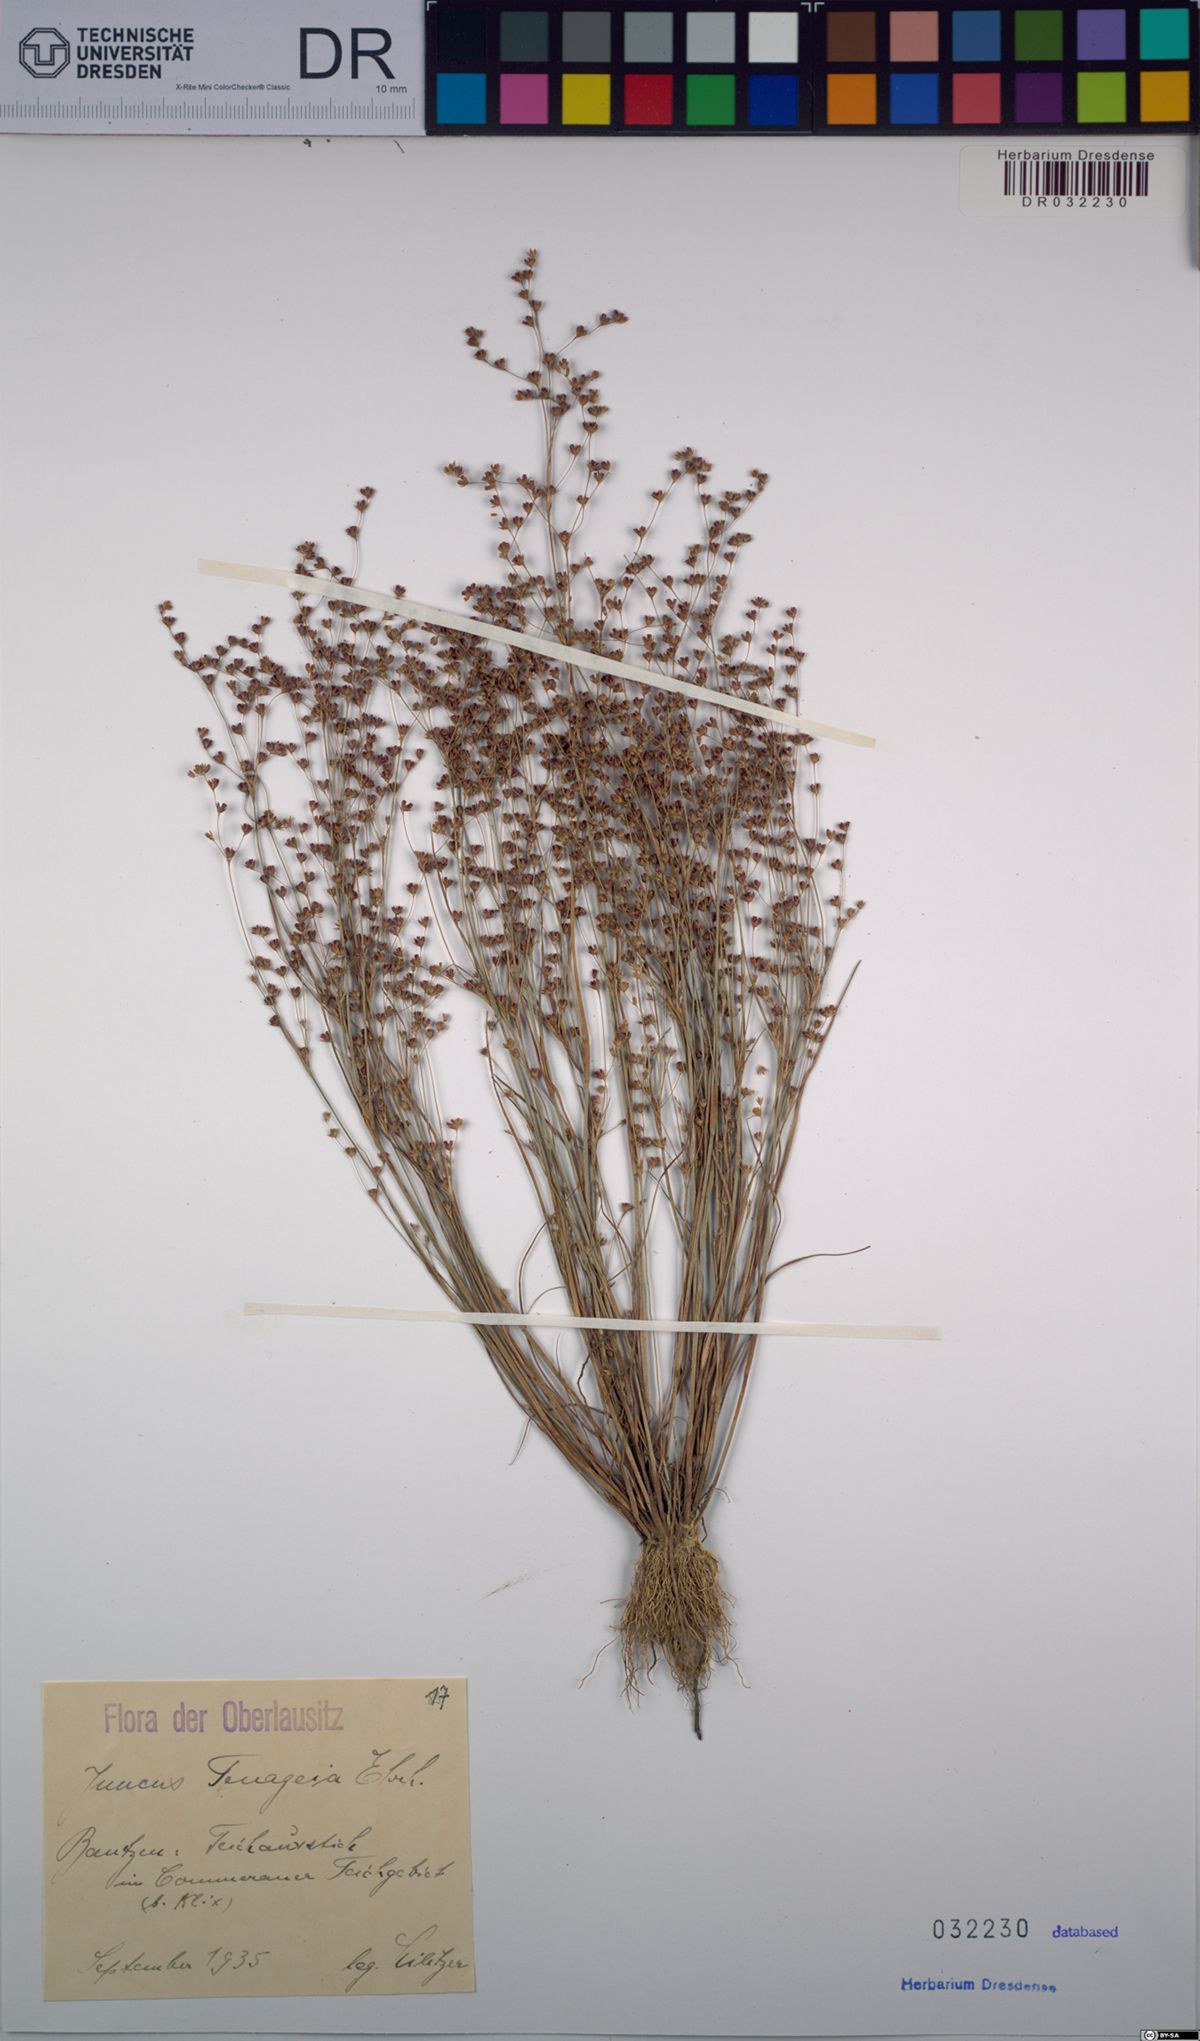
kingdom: Plantae
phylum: Tracheophyta
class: Liliopsida
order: Poales
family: Juncaceae
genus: Juncus
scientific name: Juncus tenageia
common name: Sand rush
